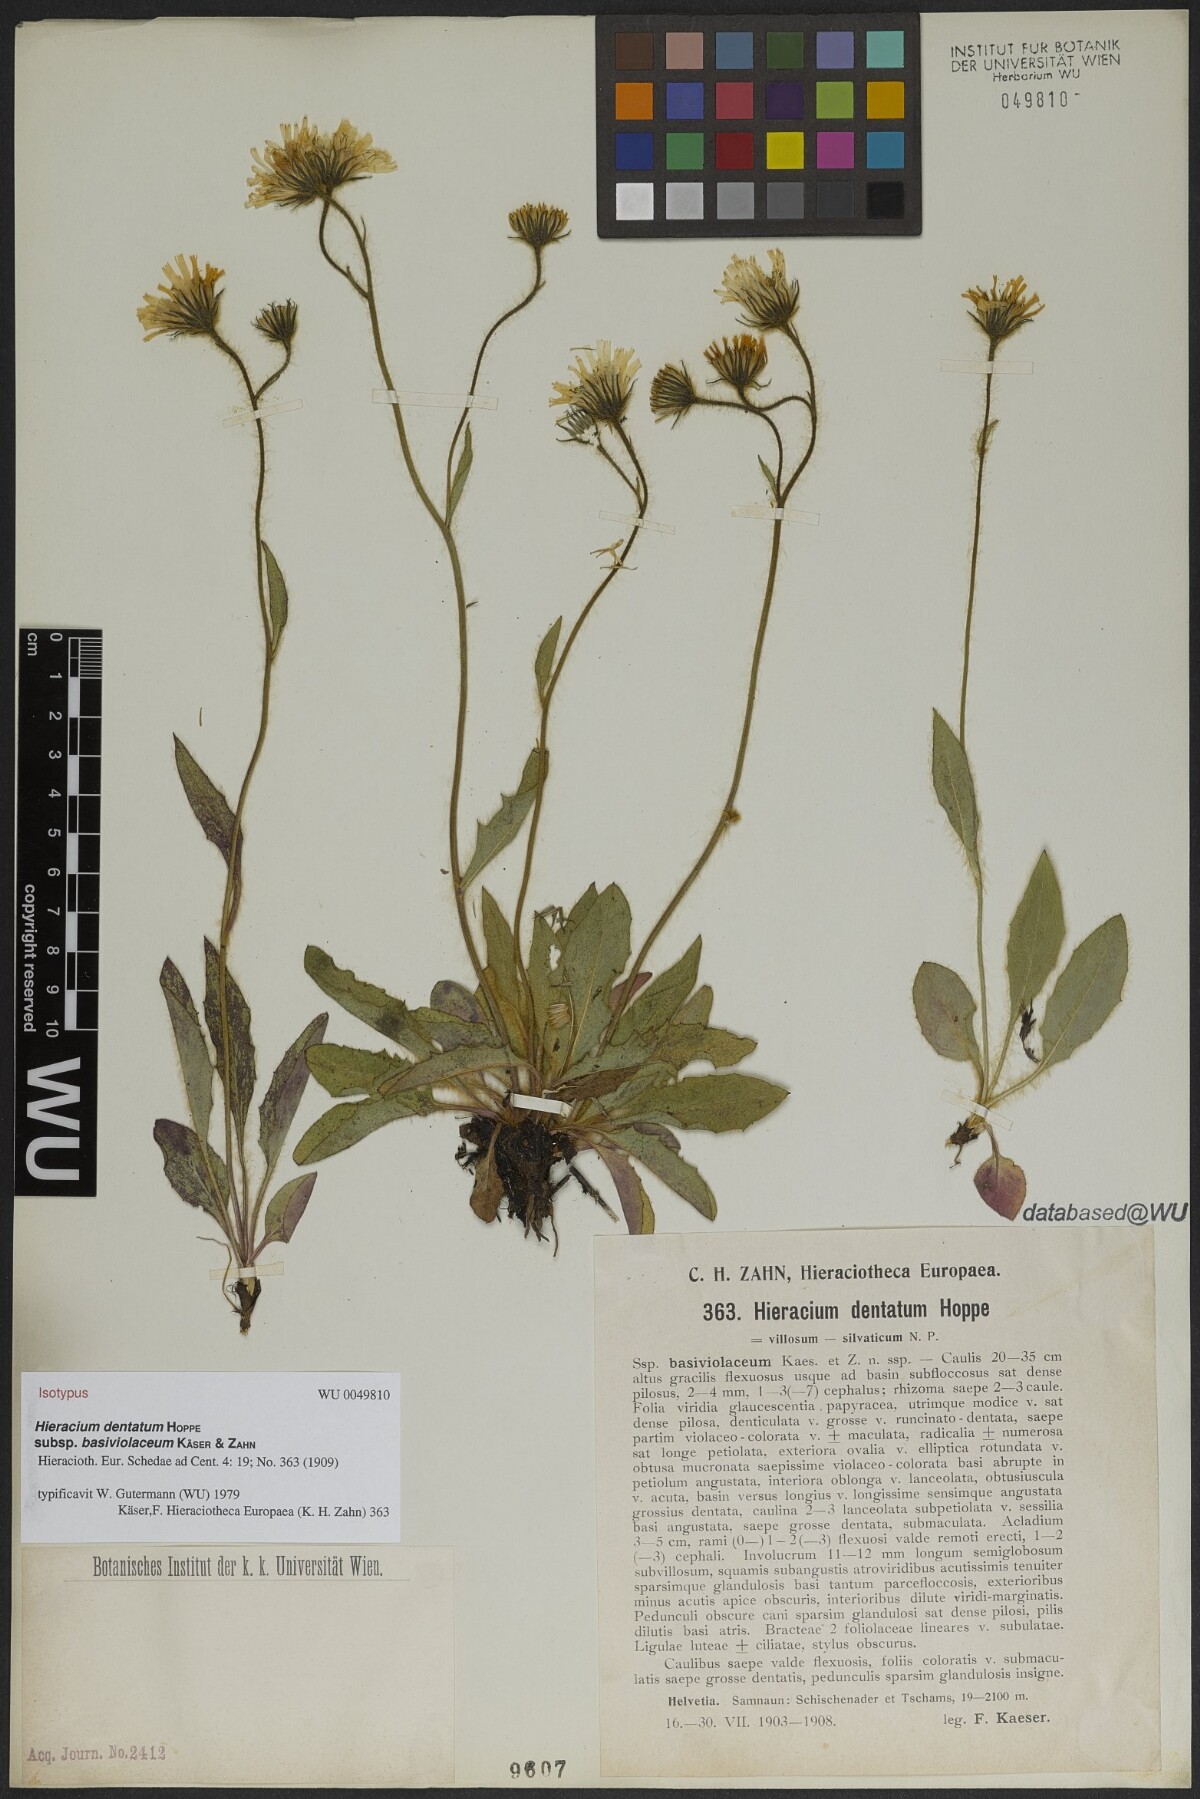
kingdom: Plantae
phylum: Tracheophyta
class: Magnoliopsida
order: Asterales
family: Asteraceae
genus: Hieracium
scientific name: Hieracium dentatum
